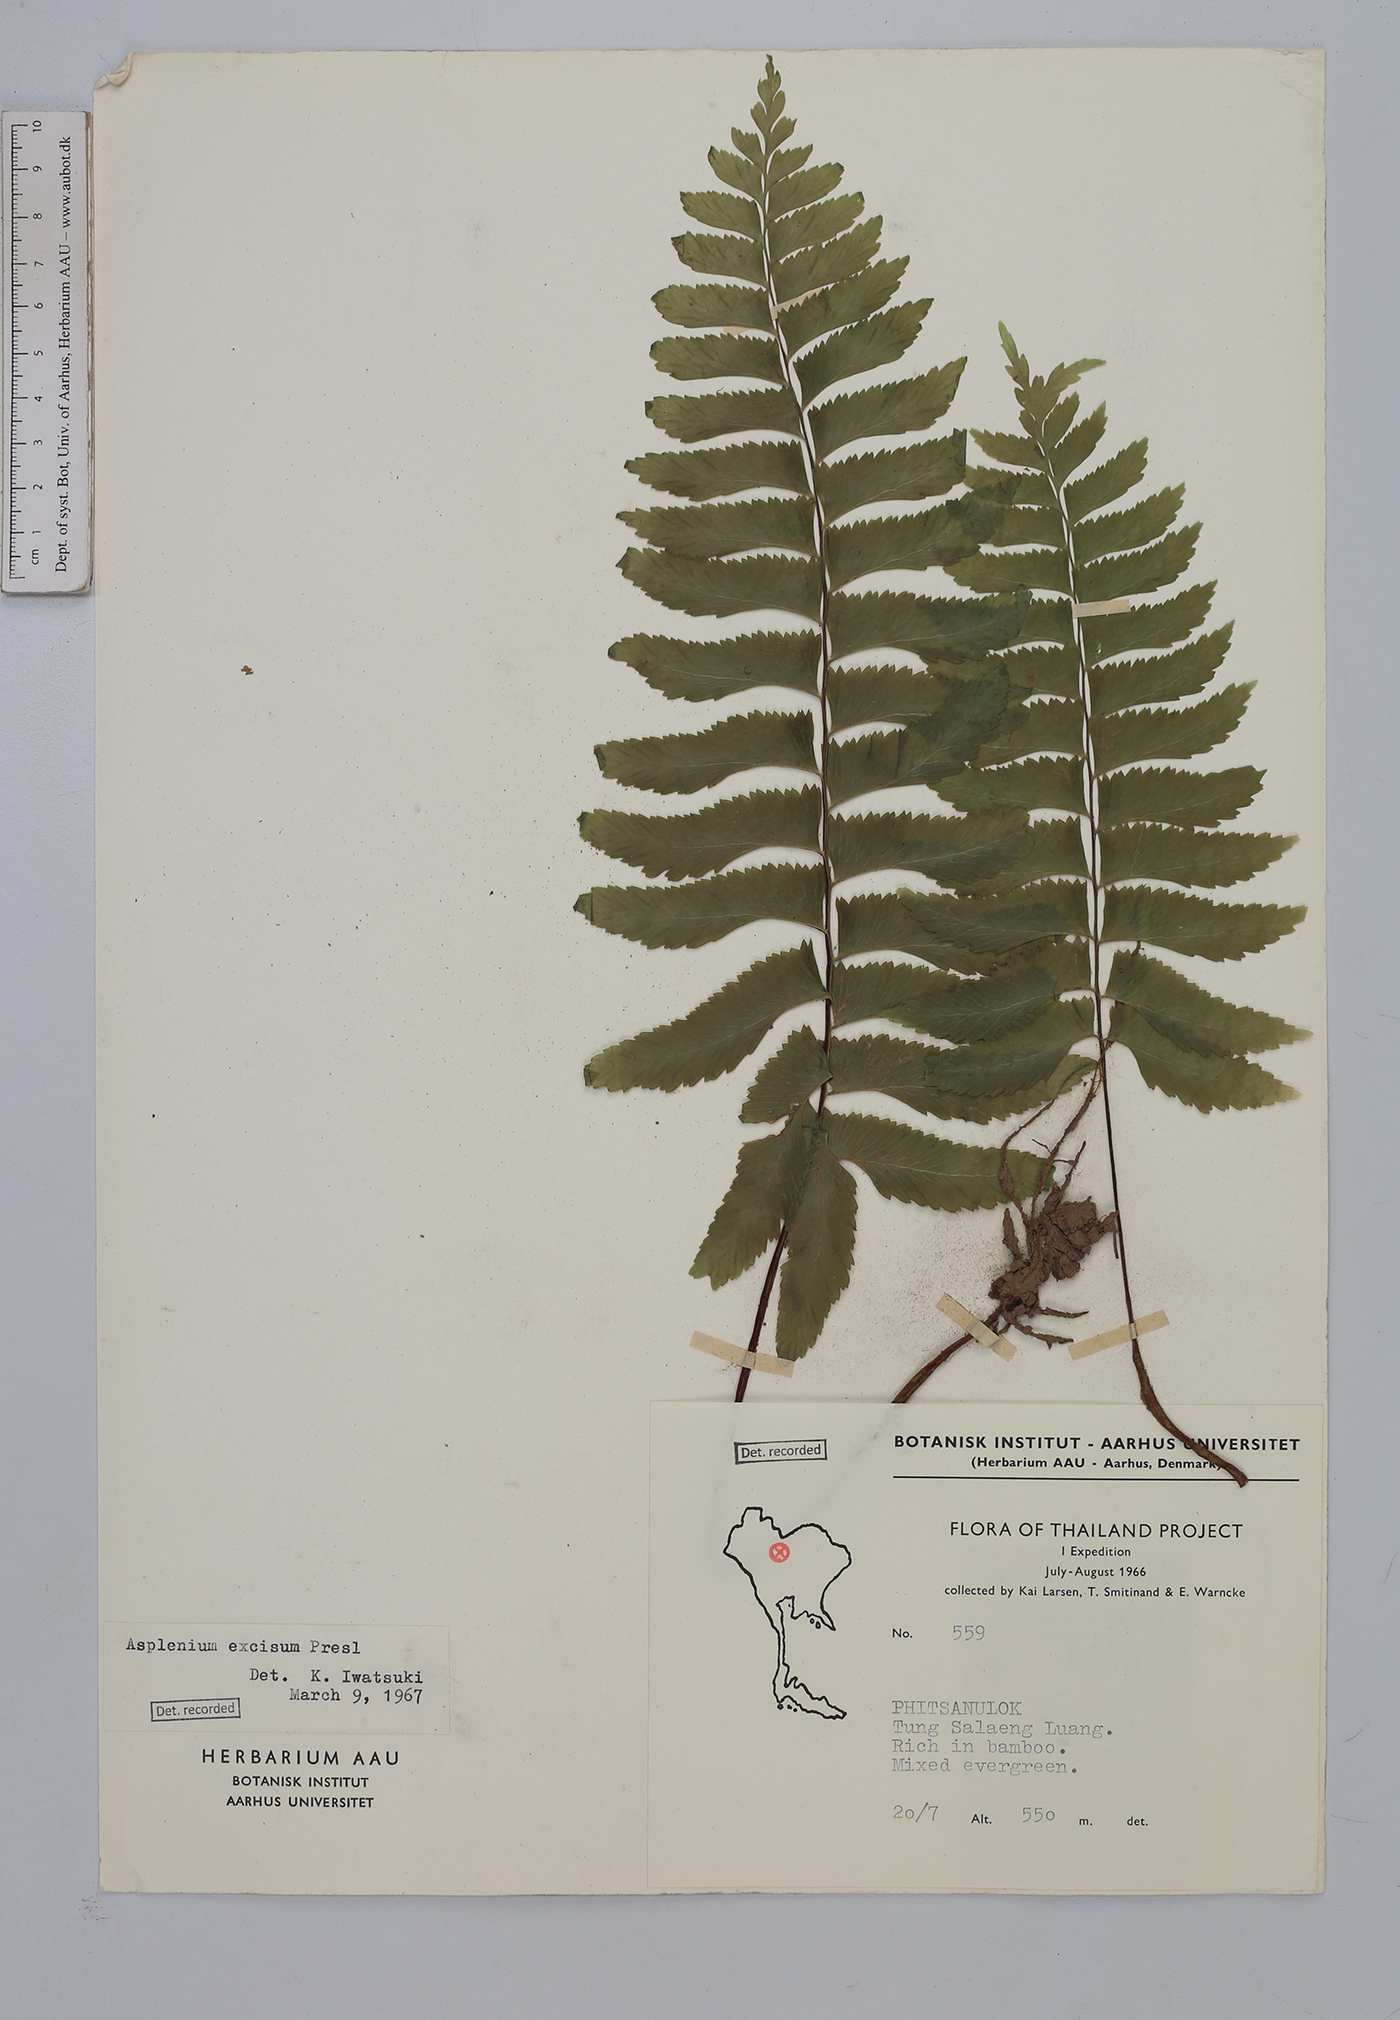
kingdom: Plantae
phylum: Tracheophyta
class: Polypodiopsida
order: Polypodiales
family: Aspleniaceae
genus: Hymenasplenium
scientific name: Hymenasplenium excisum
